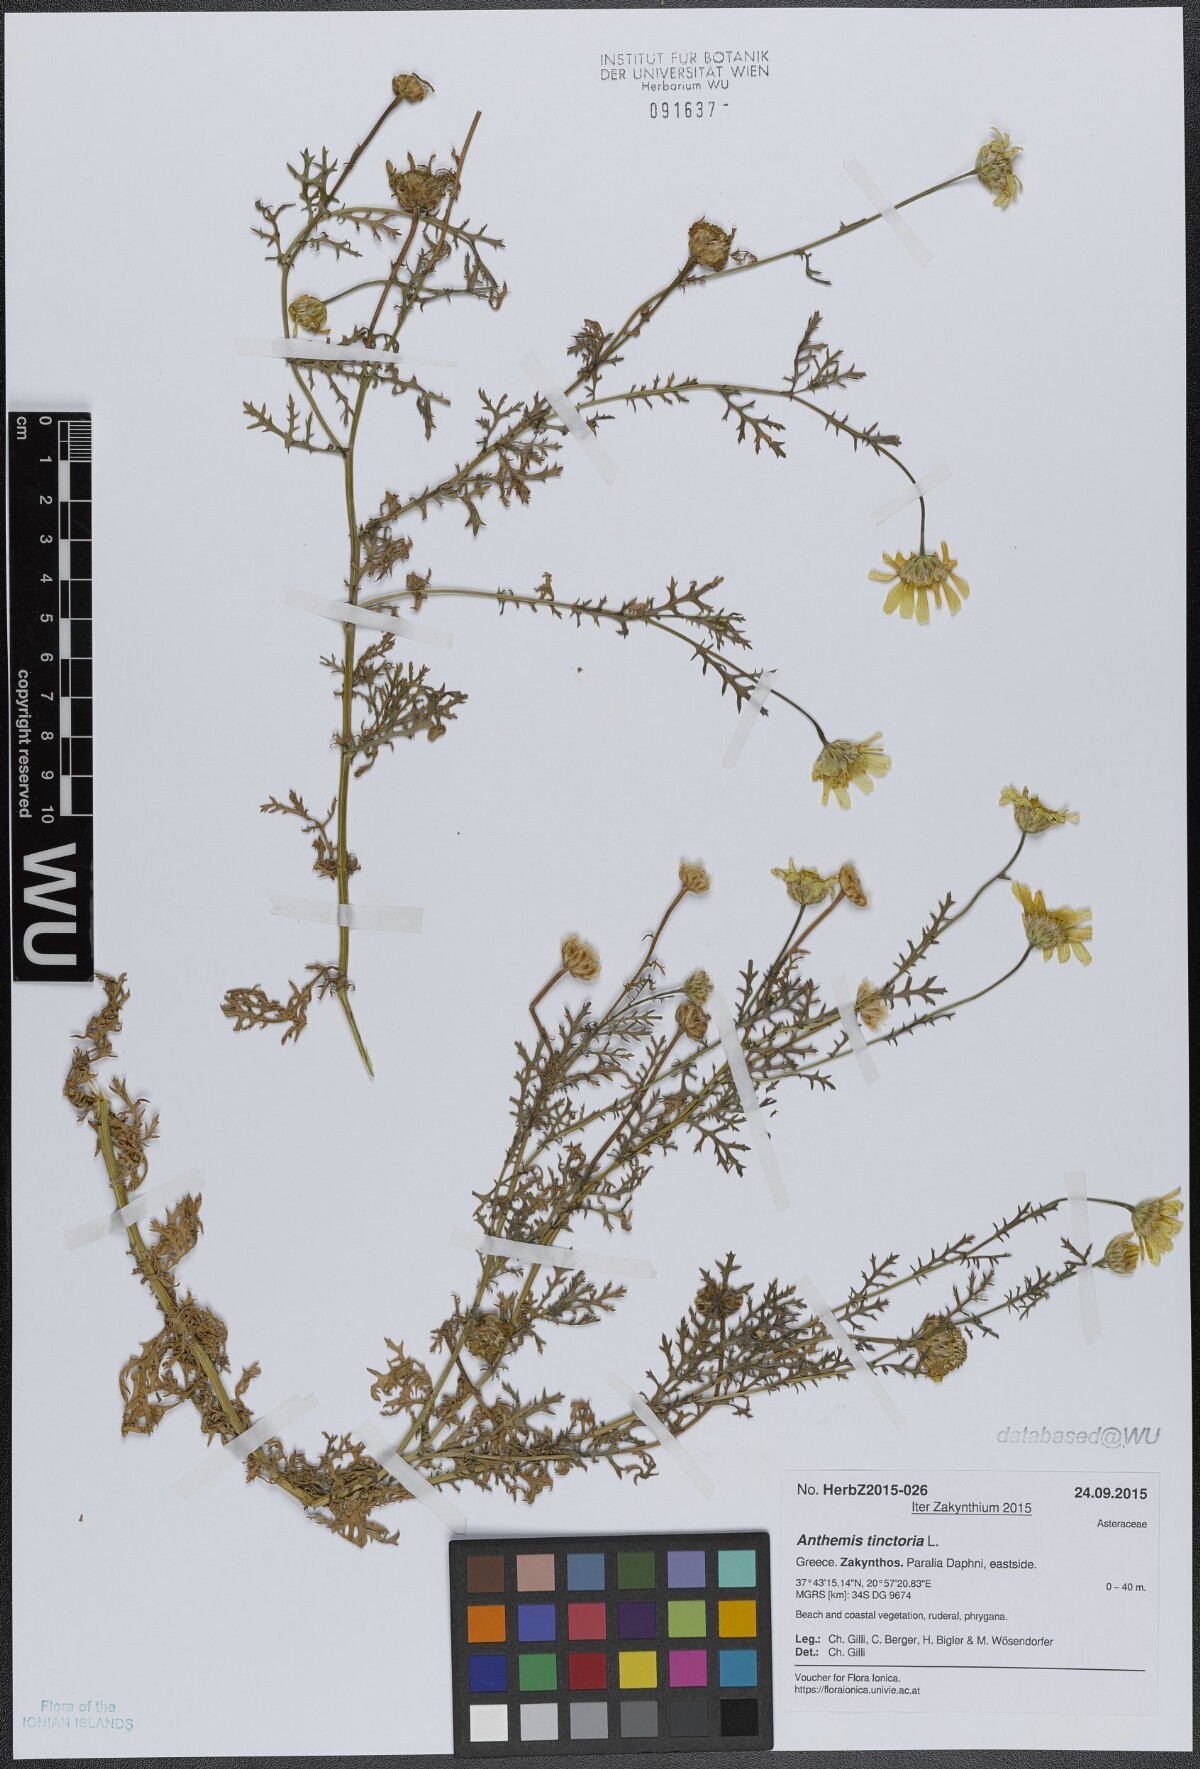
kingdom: Plantae
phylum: Tracheophyta
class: Magnoliopsida
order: Asterales
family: Asteraceae
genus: Cota
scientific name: Cota tinctoria
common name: Golden chamomile
